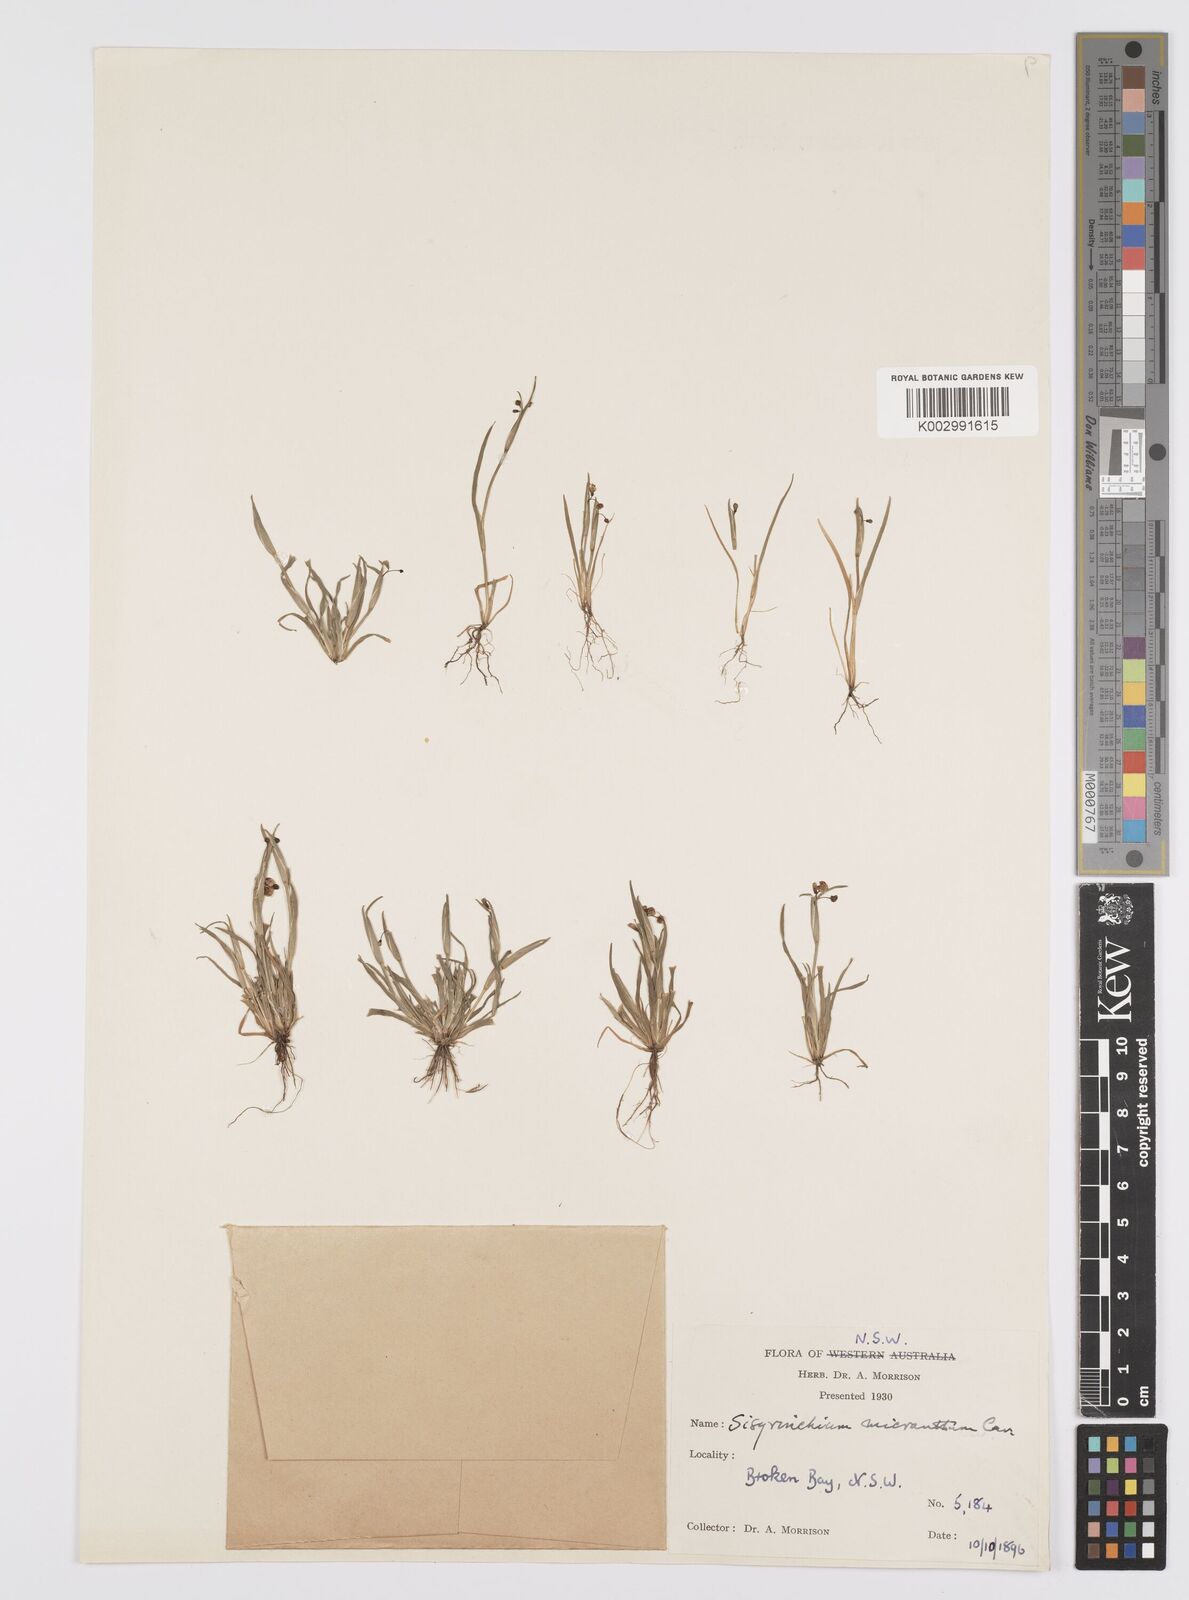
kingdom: Plantae
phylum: Tracheophyta
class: Liliopsida
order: Asparagales
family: Iridaceae
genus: Sisyrinchium
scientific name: Sisyrinchium micranthum
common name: Bermuda pigroot
